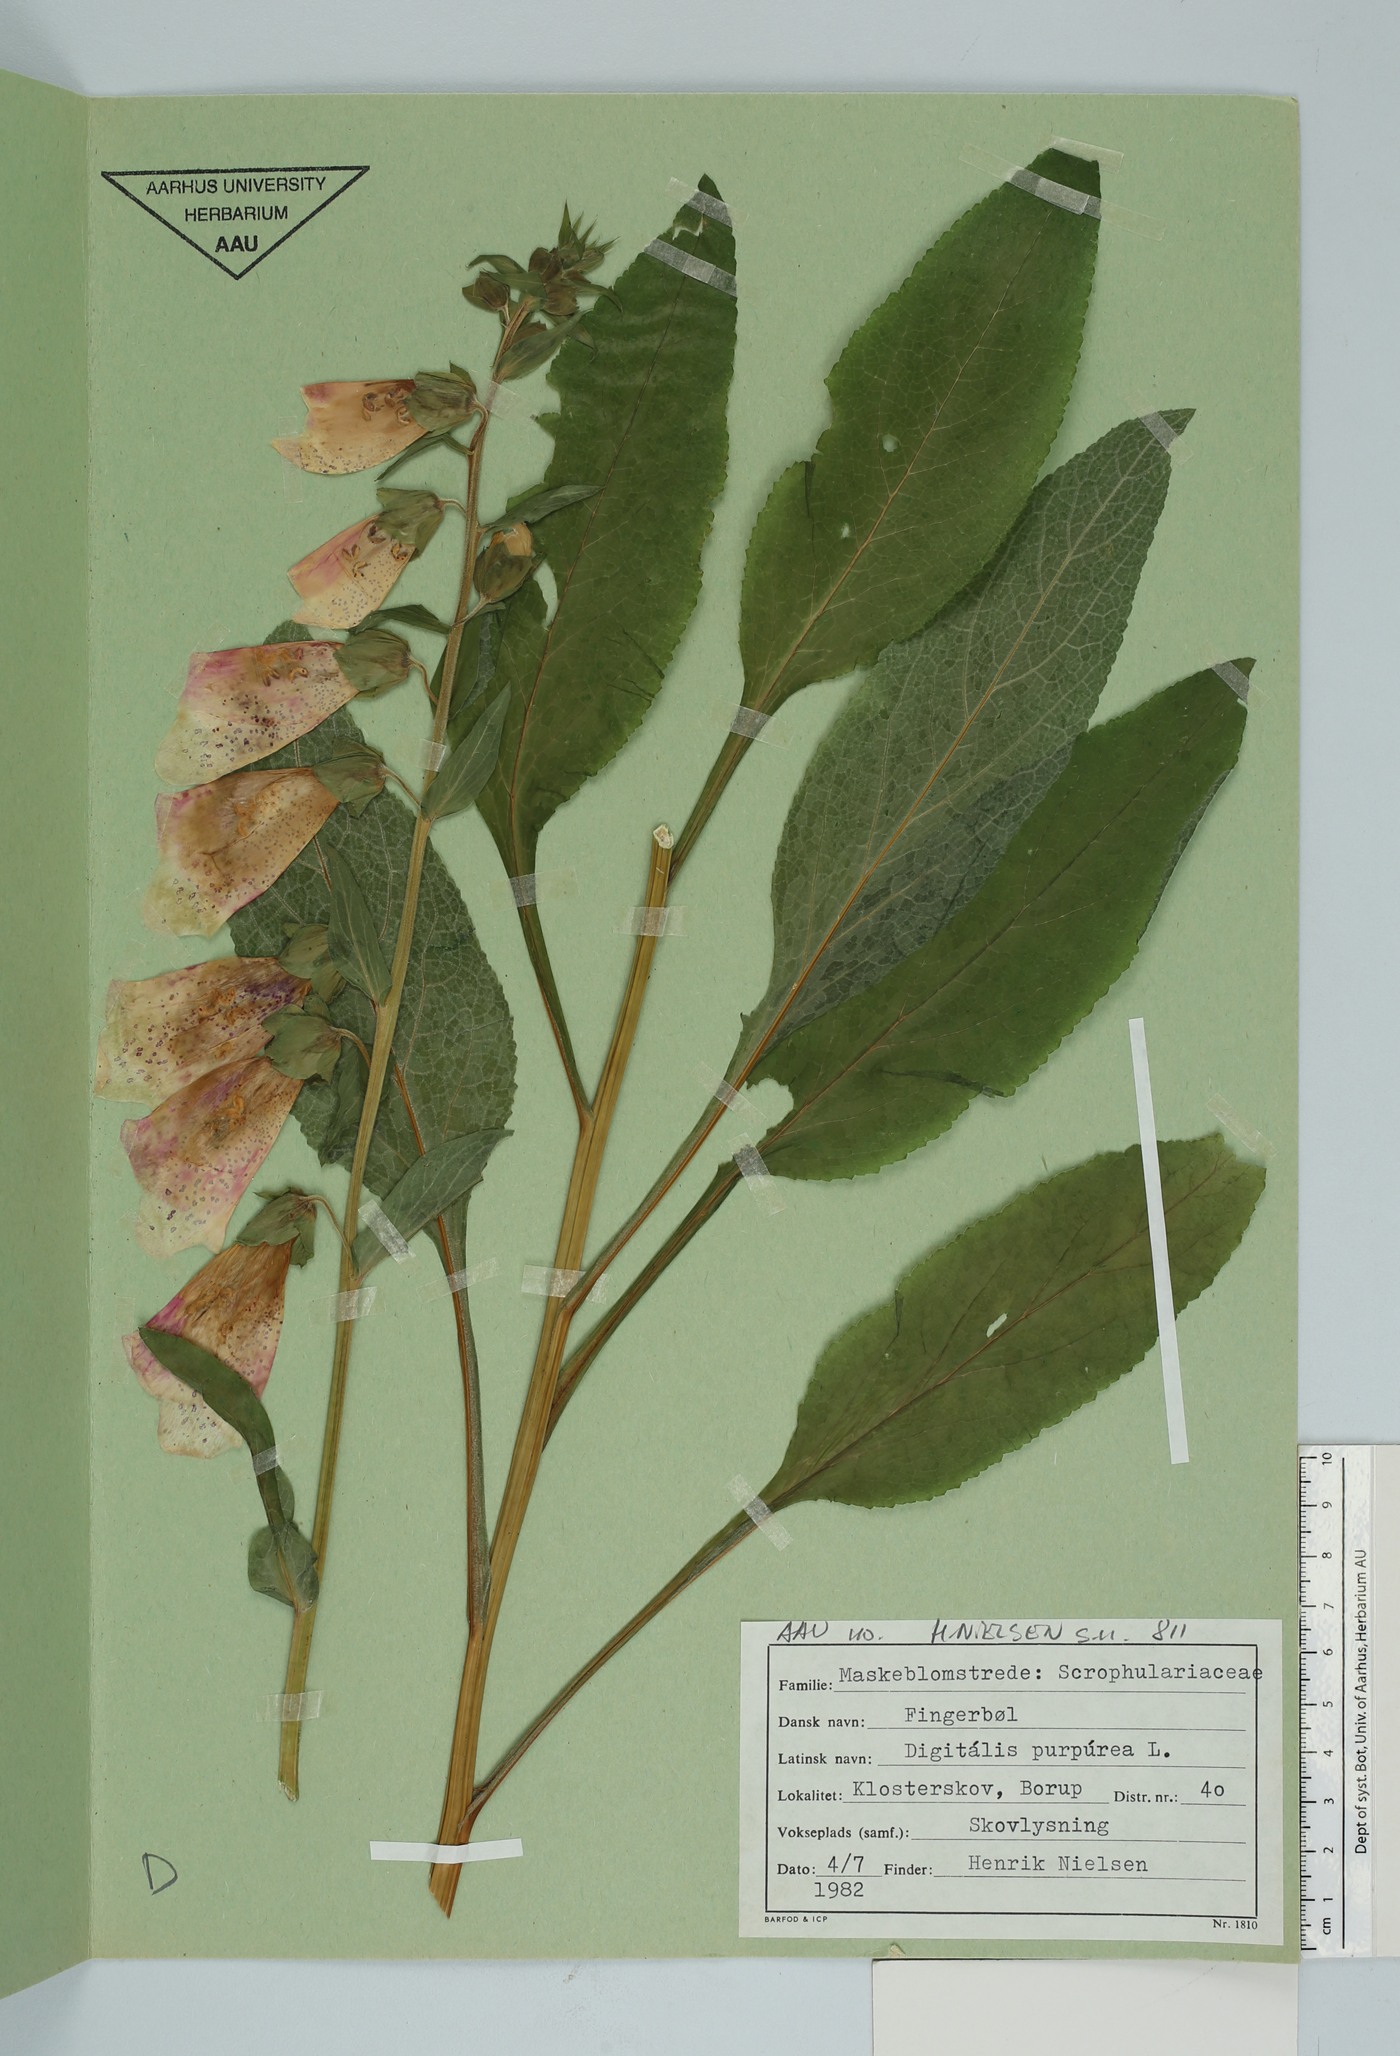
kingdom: Plantae
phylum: Tracheophyta
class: Magnoliopsida
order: Lamiales
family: Plantaginaceae
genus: Digitalis
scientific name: Digitalis purpurea
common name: Foxglove
